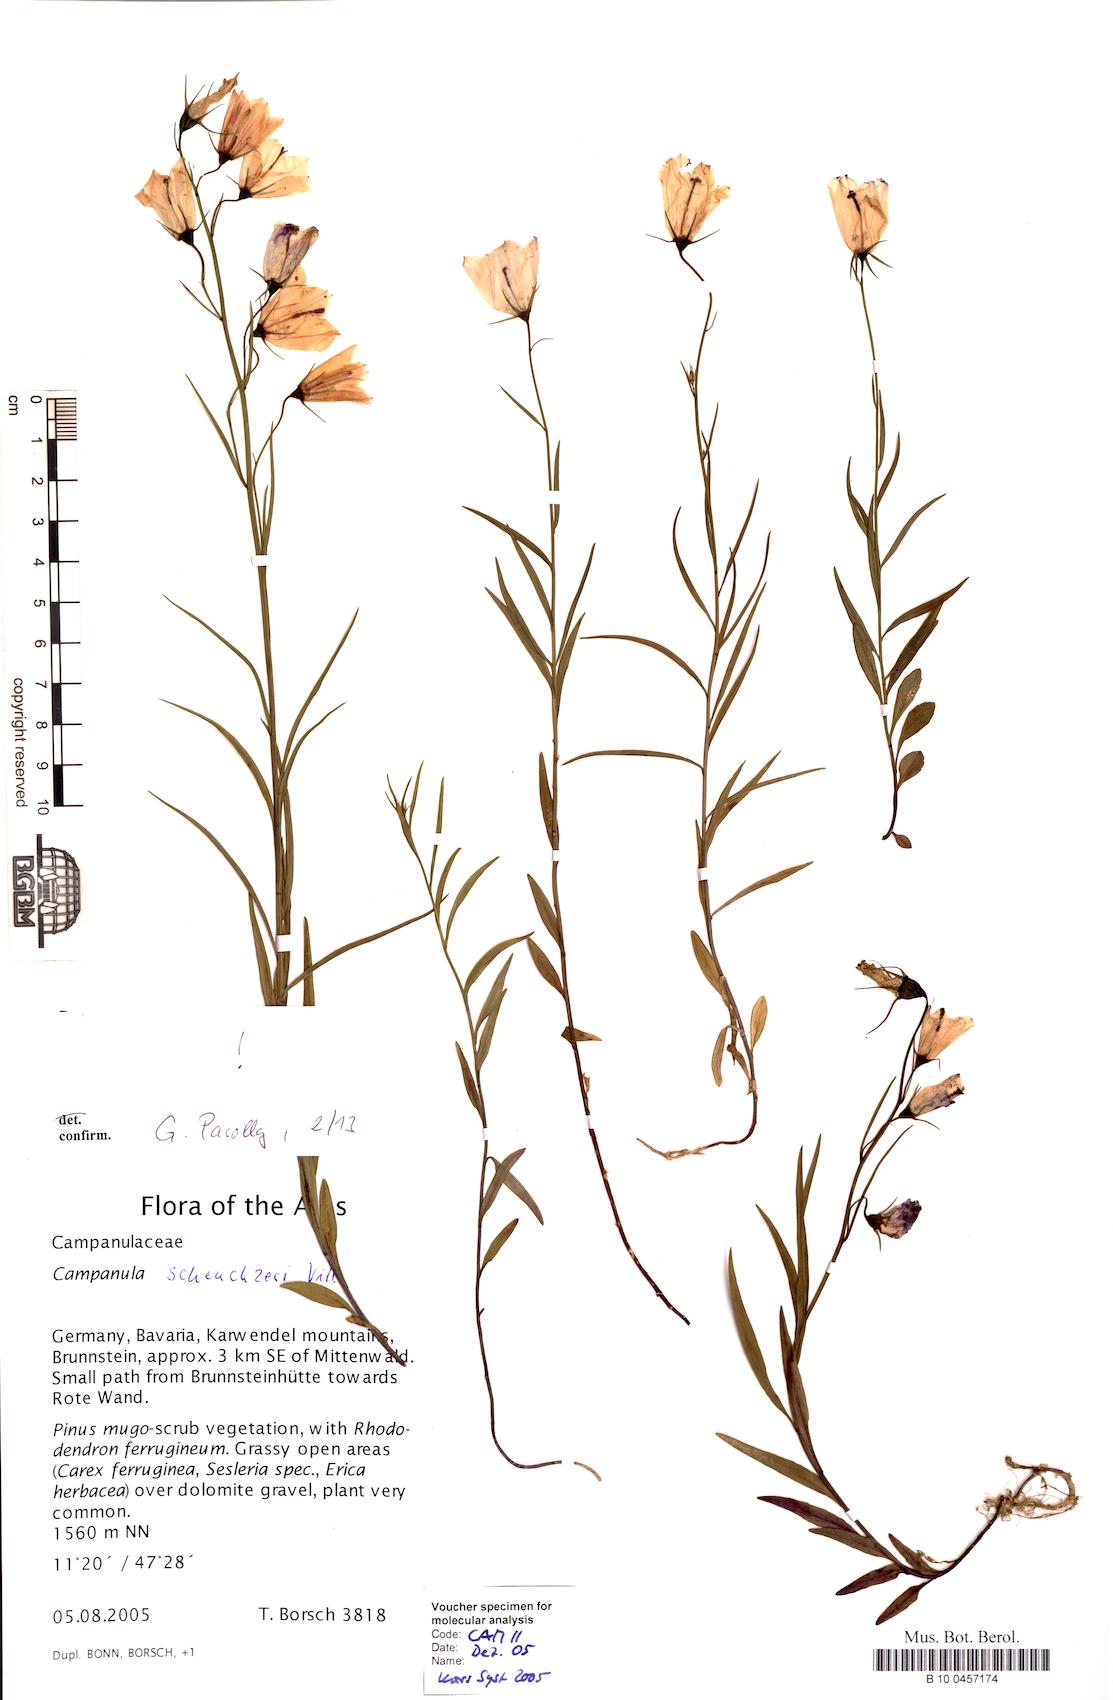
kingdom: Plantae
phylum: Tracheophyta
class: Magnoliopsida
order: Asterales
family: Campanulaceae
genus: Campanula
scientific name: Campanula scheuchzeri
